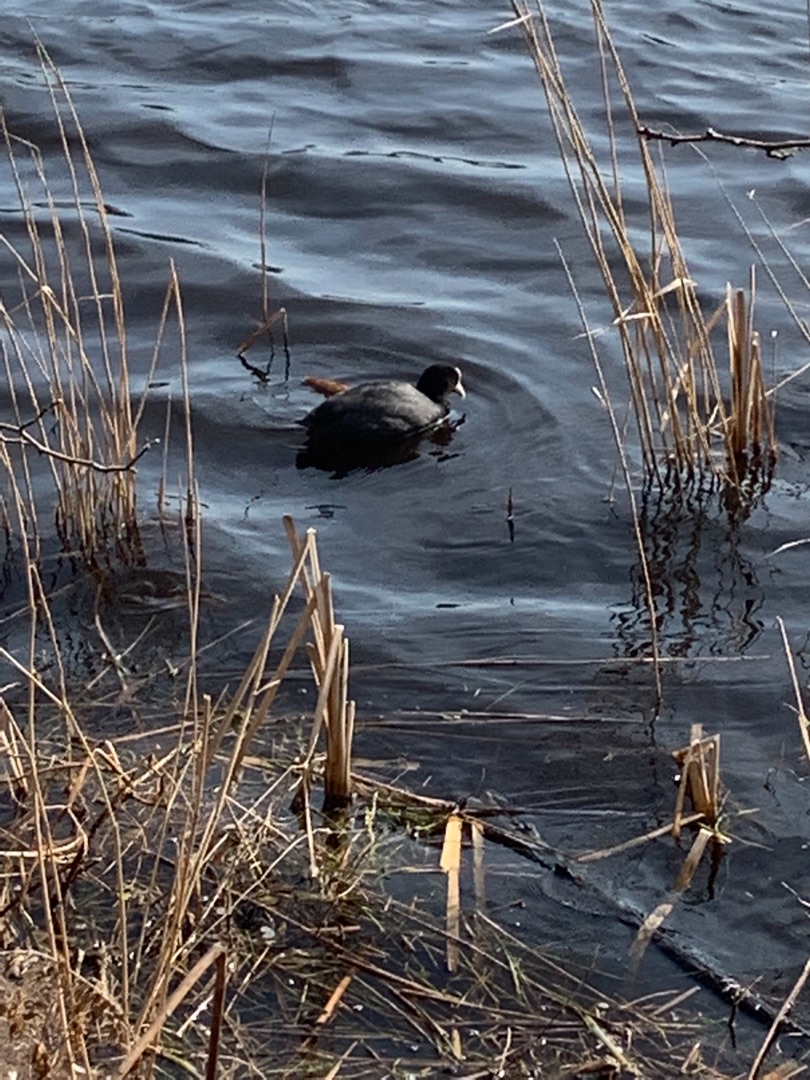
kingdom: Animalia
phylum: Chordata
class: Aves
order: Gruiformes
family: Rallidae
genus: Fulica
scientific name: Fulica atra
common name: Blishøne
